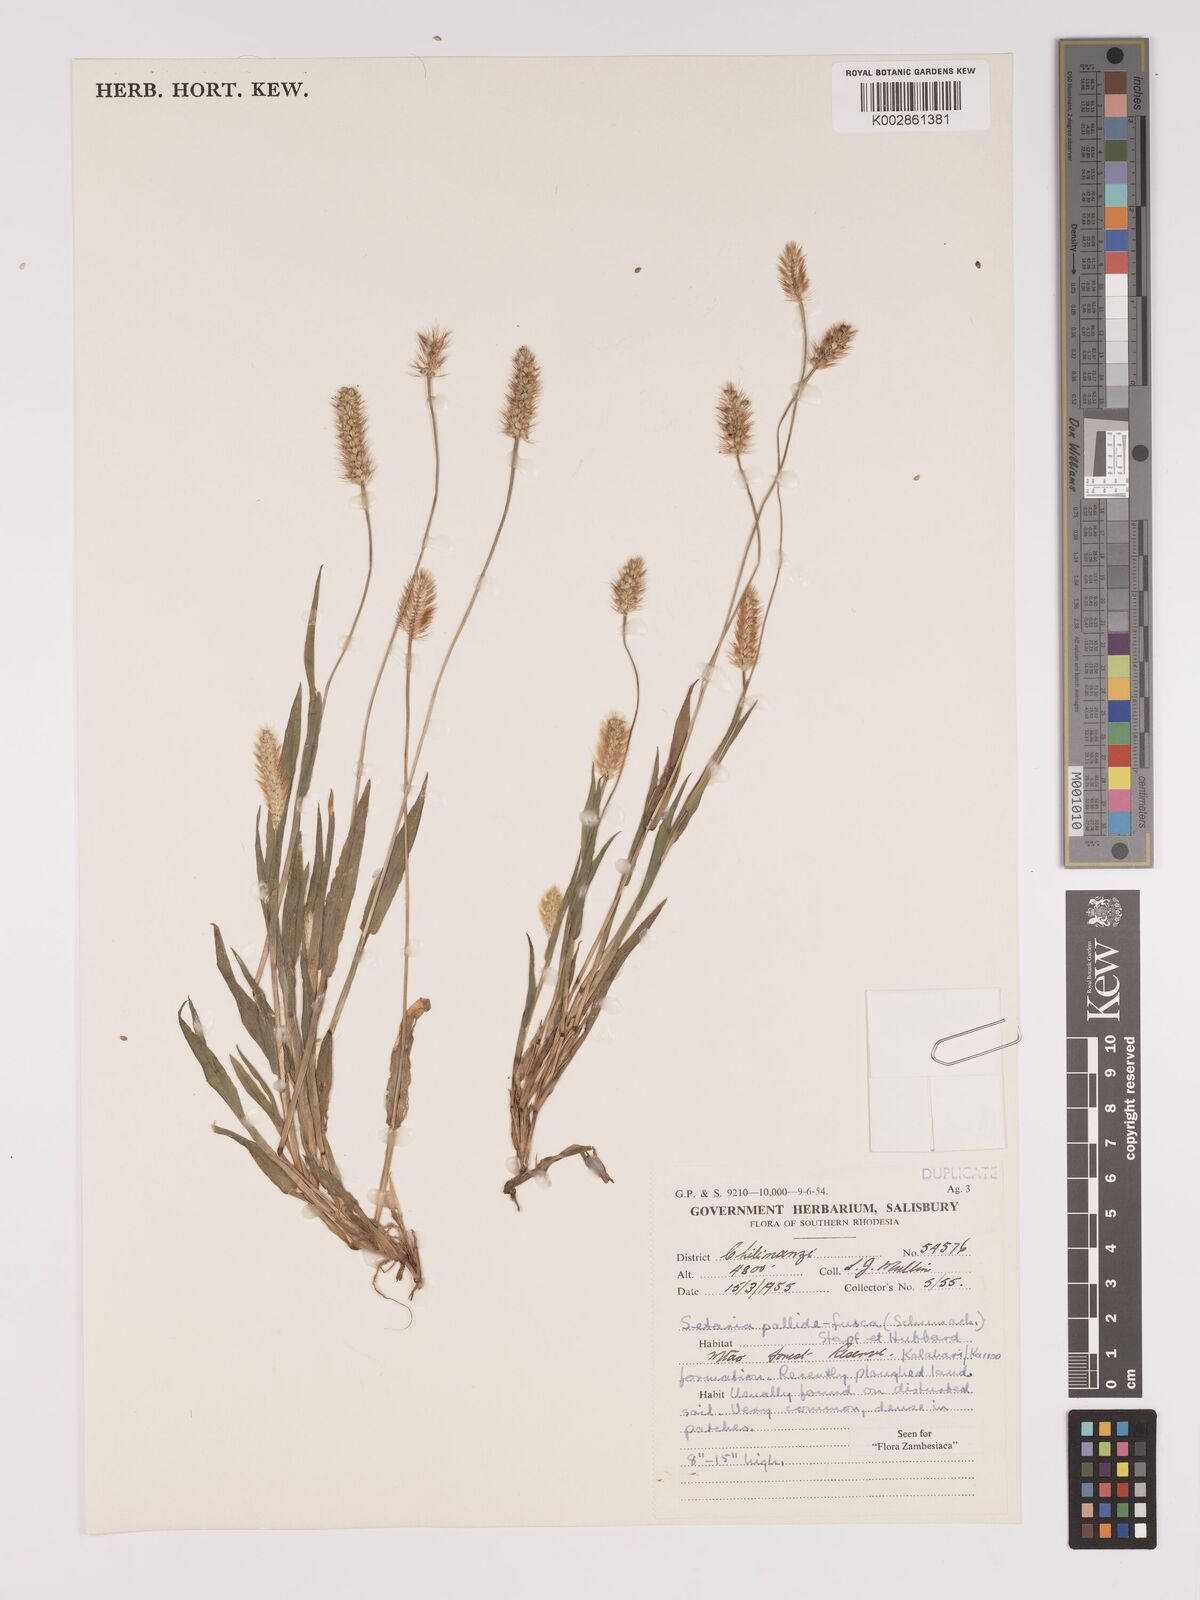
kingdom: Plantae
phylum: Tracheophyta
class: Liliopsida
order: Poales
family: Poaceae
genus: Setaria
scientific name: Setaria pumila
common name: Yellow bristle-grass
